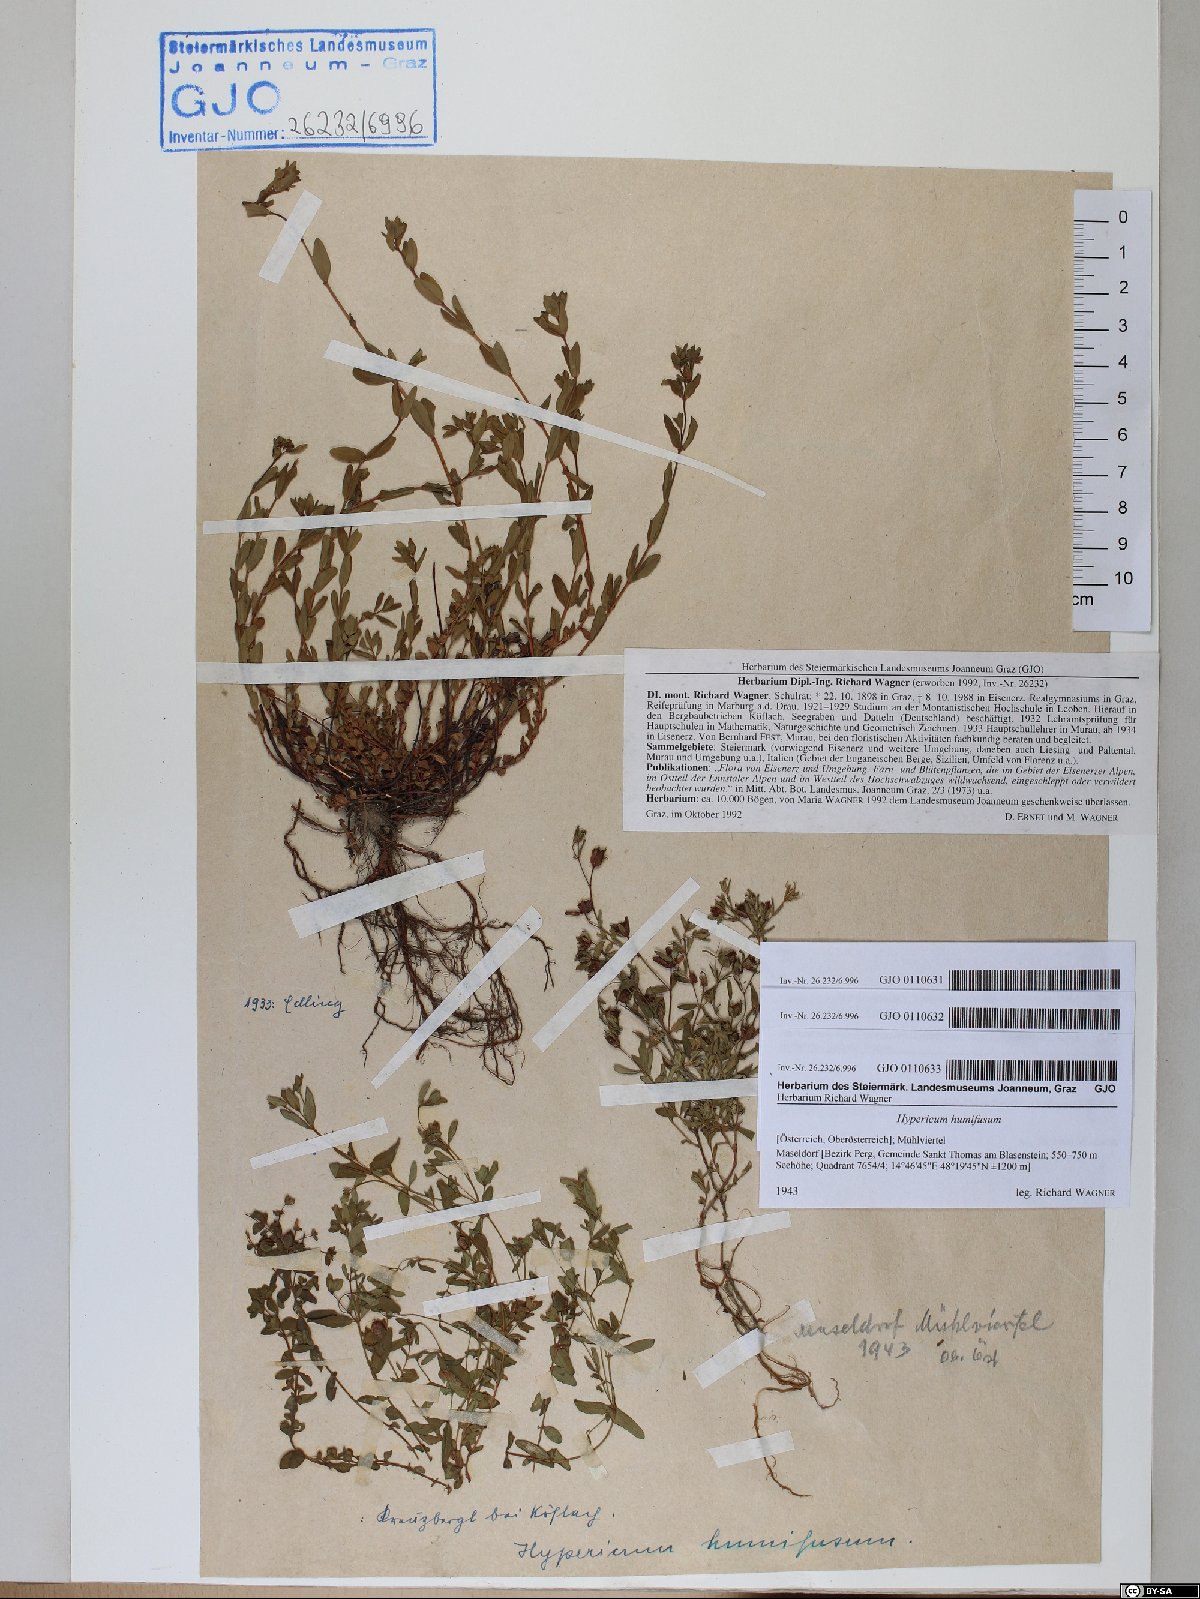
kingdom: Plantae
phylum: Tracheophyta
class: Magnoliopsida
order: Malpighiales
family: Hypericaceae
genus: Hypericum
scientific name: Hypericum humifusum
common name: Trailing st. john's-wort
